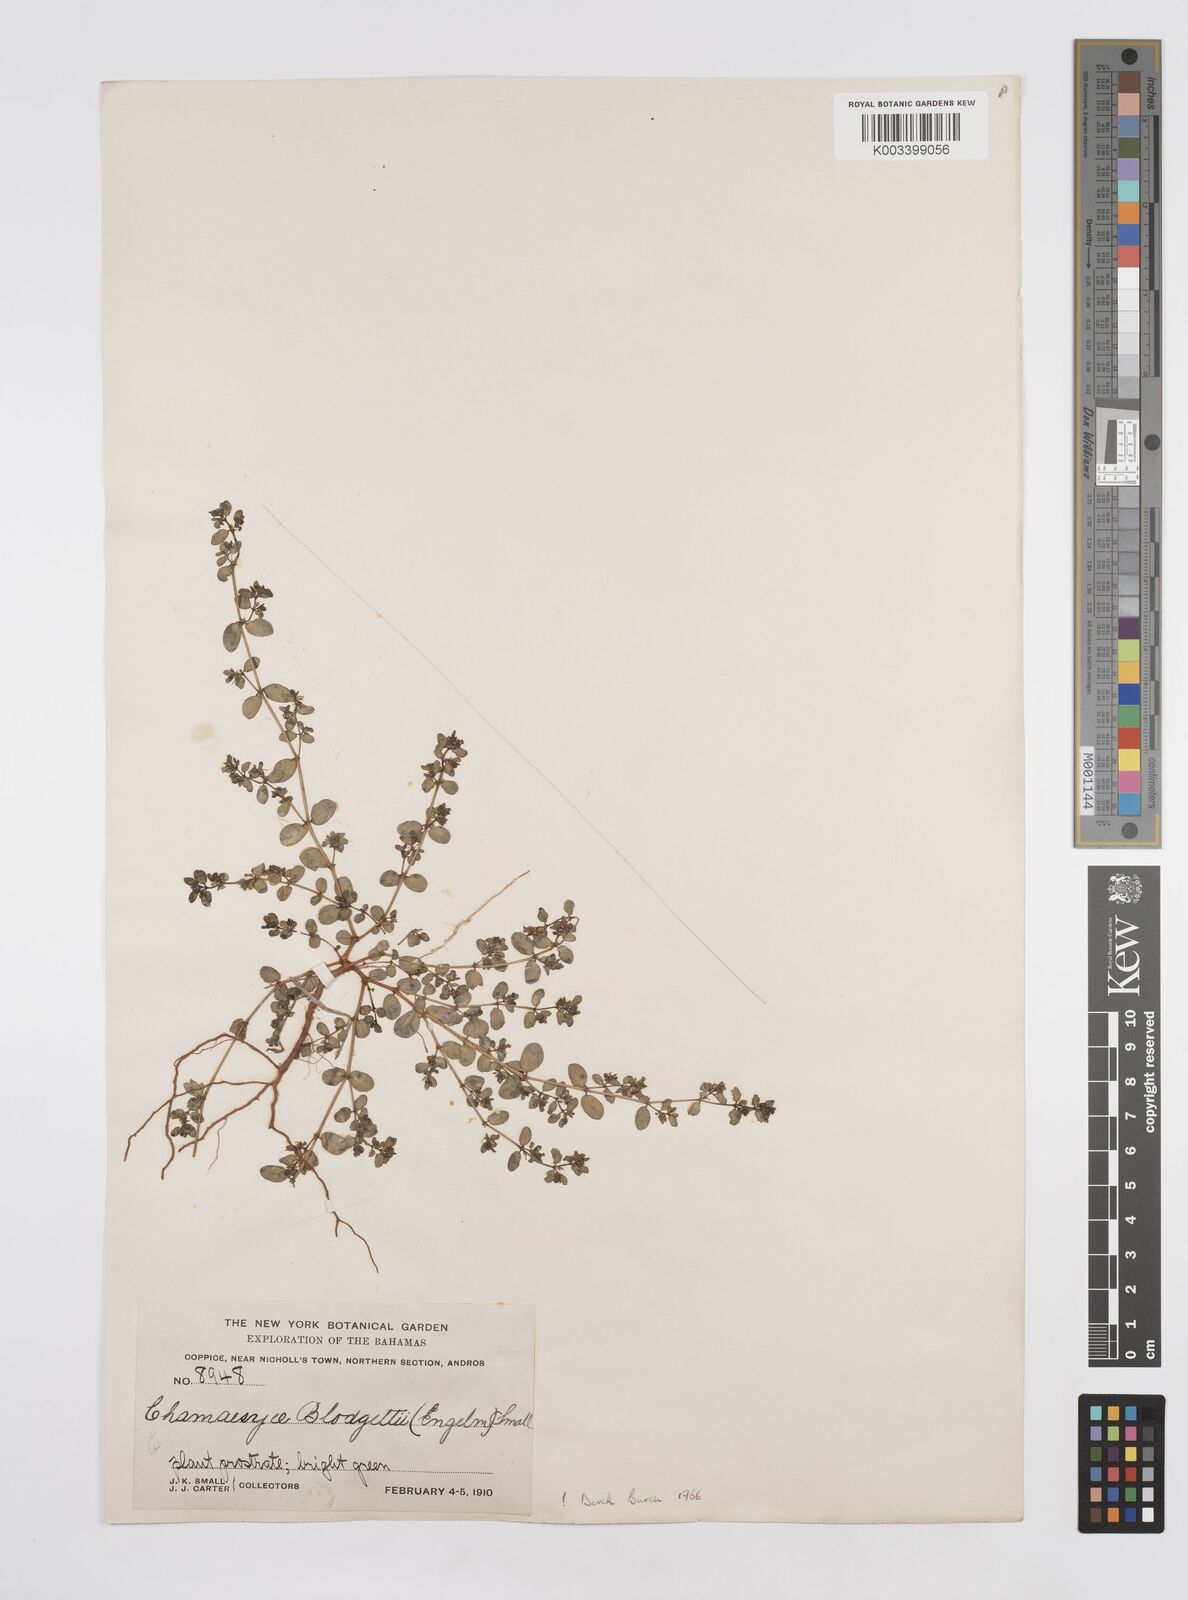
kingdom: Plantae
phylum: Tracheophyta
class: Magnoliopsida
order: Malpighiales
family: Euphorbiaceae
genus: Euphorbia
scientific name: Euphorbia blodgettii
